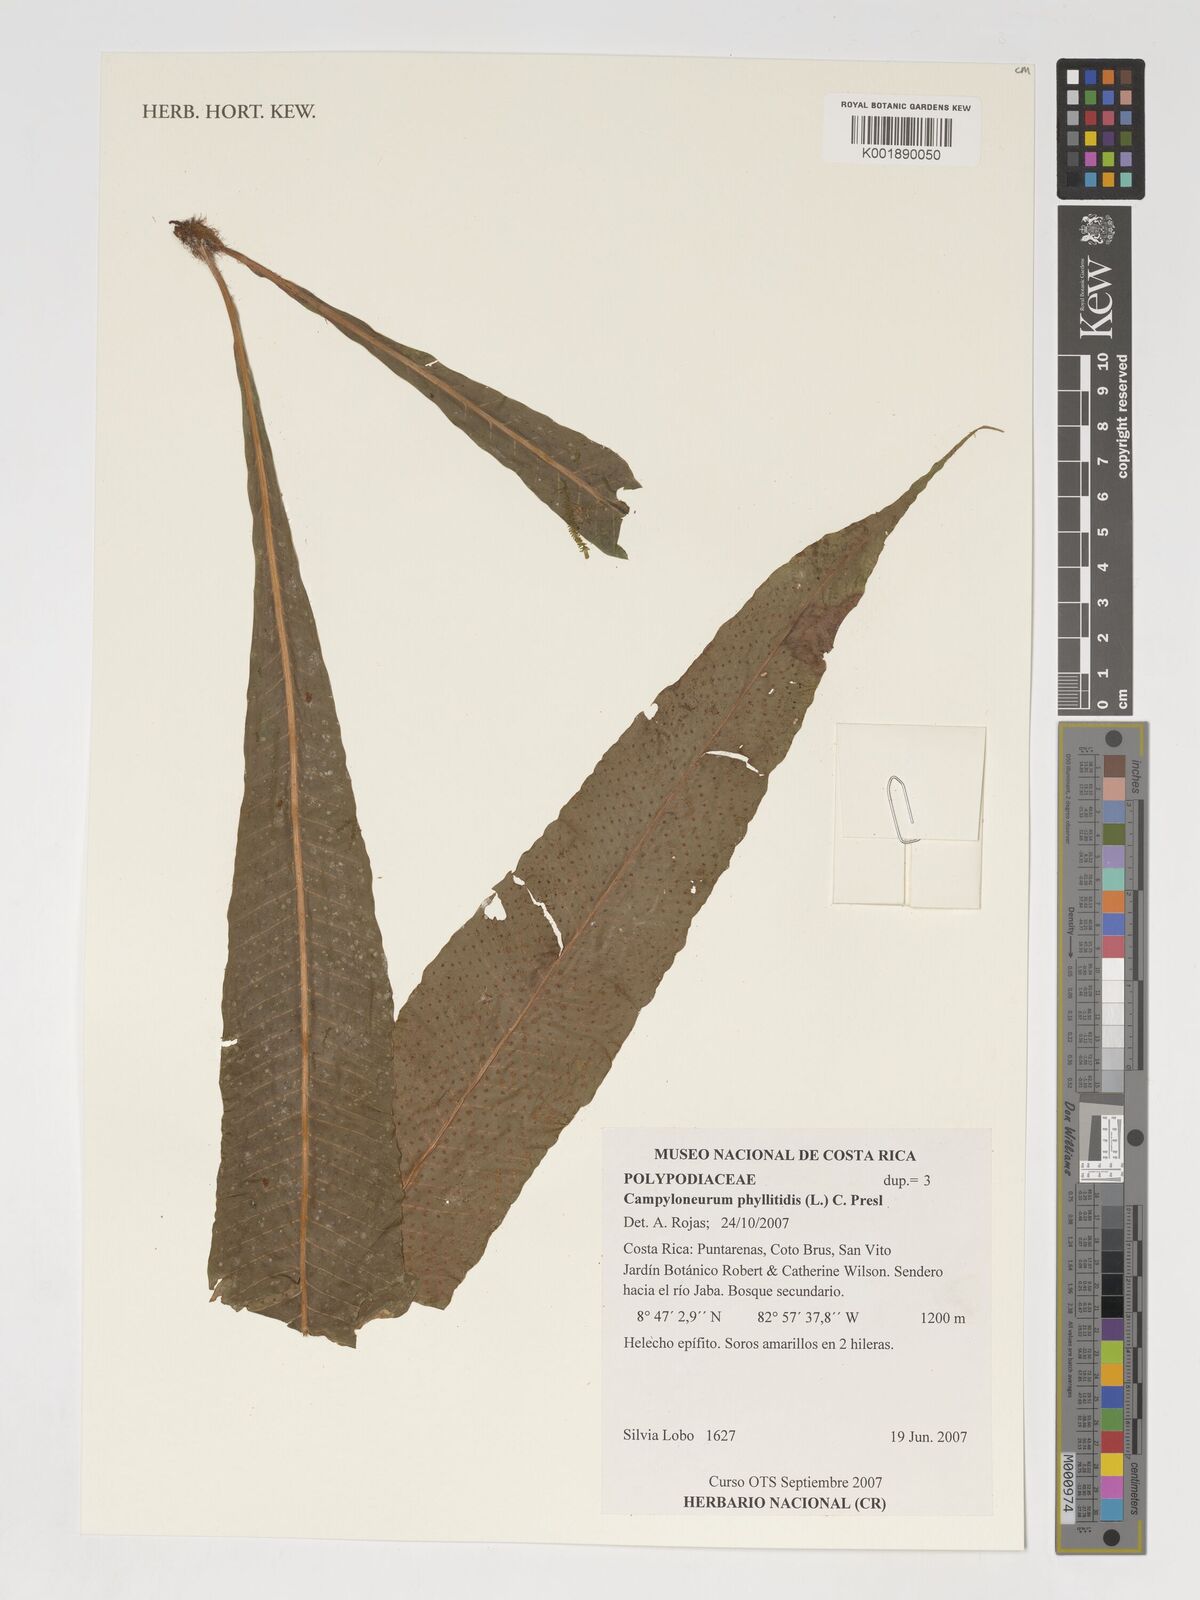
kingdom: Plantae
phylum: Tracheophyta
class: Polypodiopsida
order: Polypodiales
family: Polypodiaceae
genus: Campyloneurum
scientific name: Campyloneurum phyllitidis
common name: Cow-tongue fern
